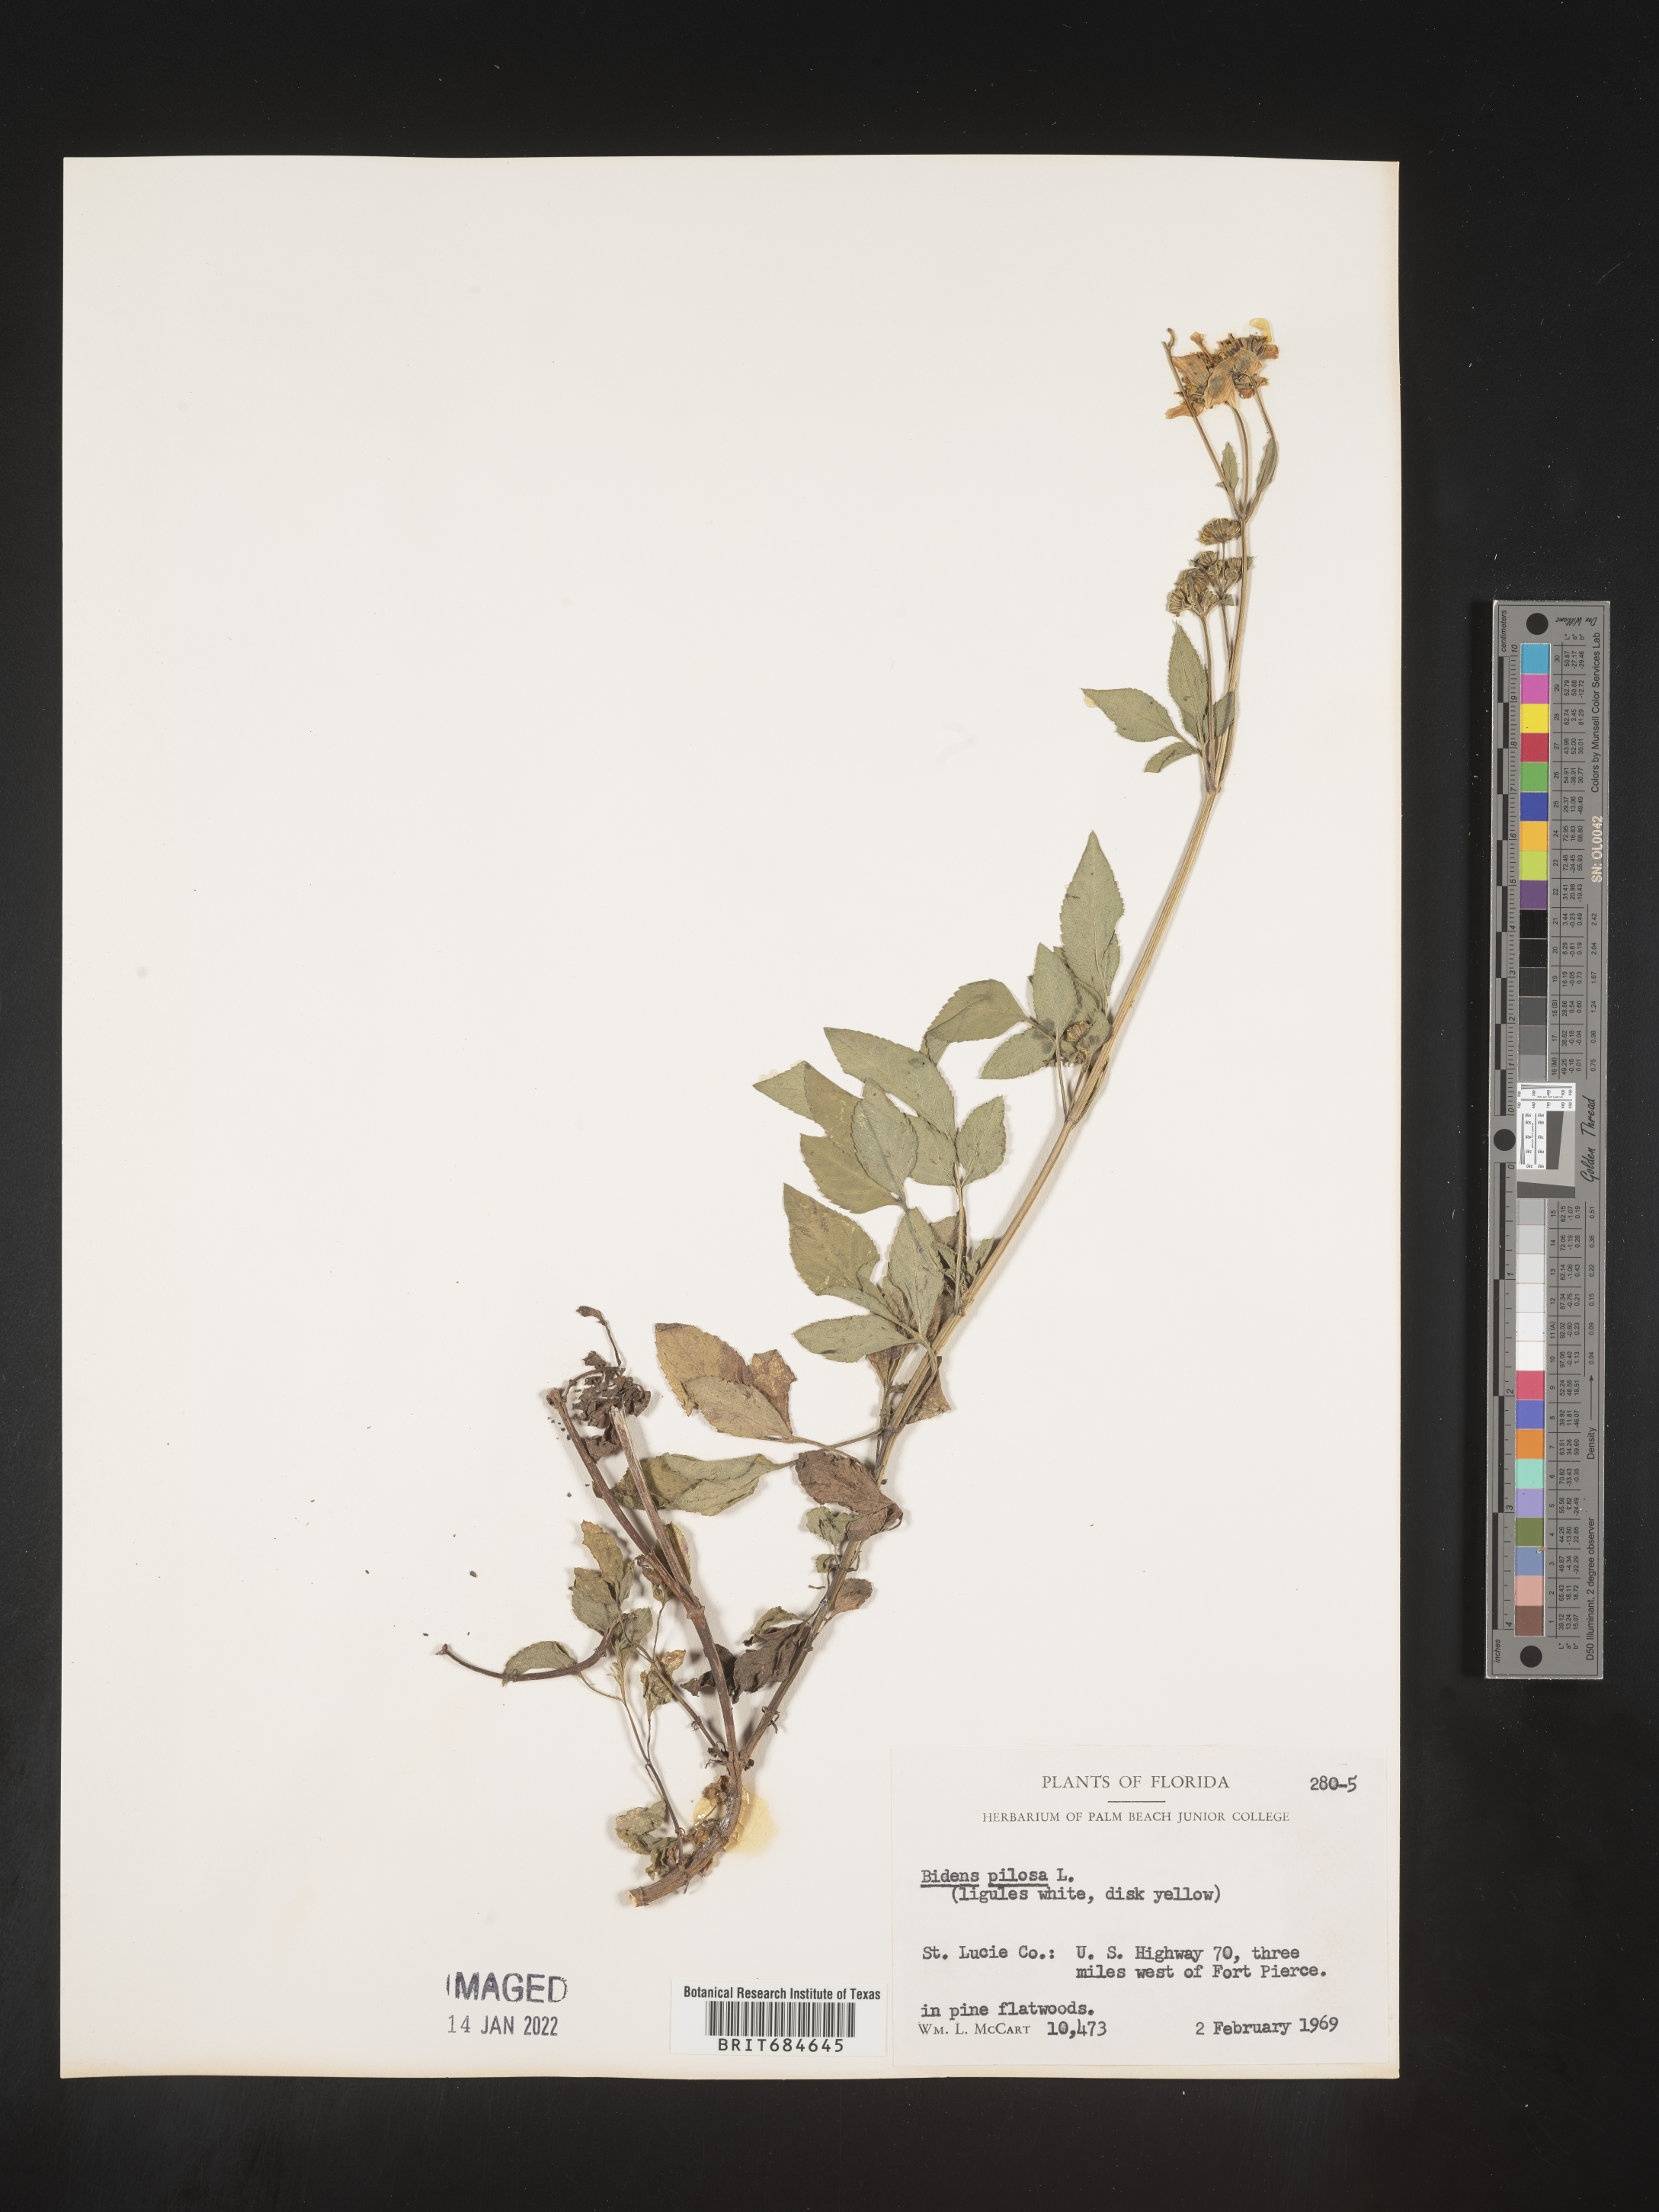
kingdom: Plantae
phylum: Tracheophyta
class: Magnoliopsida
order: Asterales
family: Asteraceae
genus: Bidens
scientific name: Bidens pilosa
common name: Black-jack
